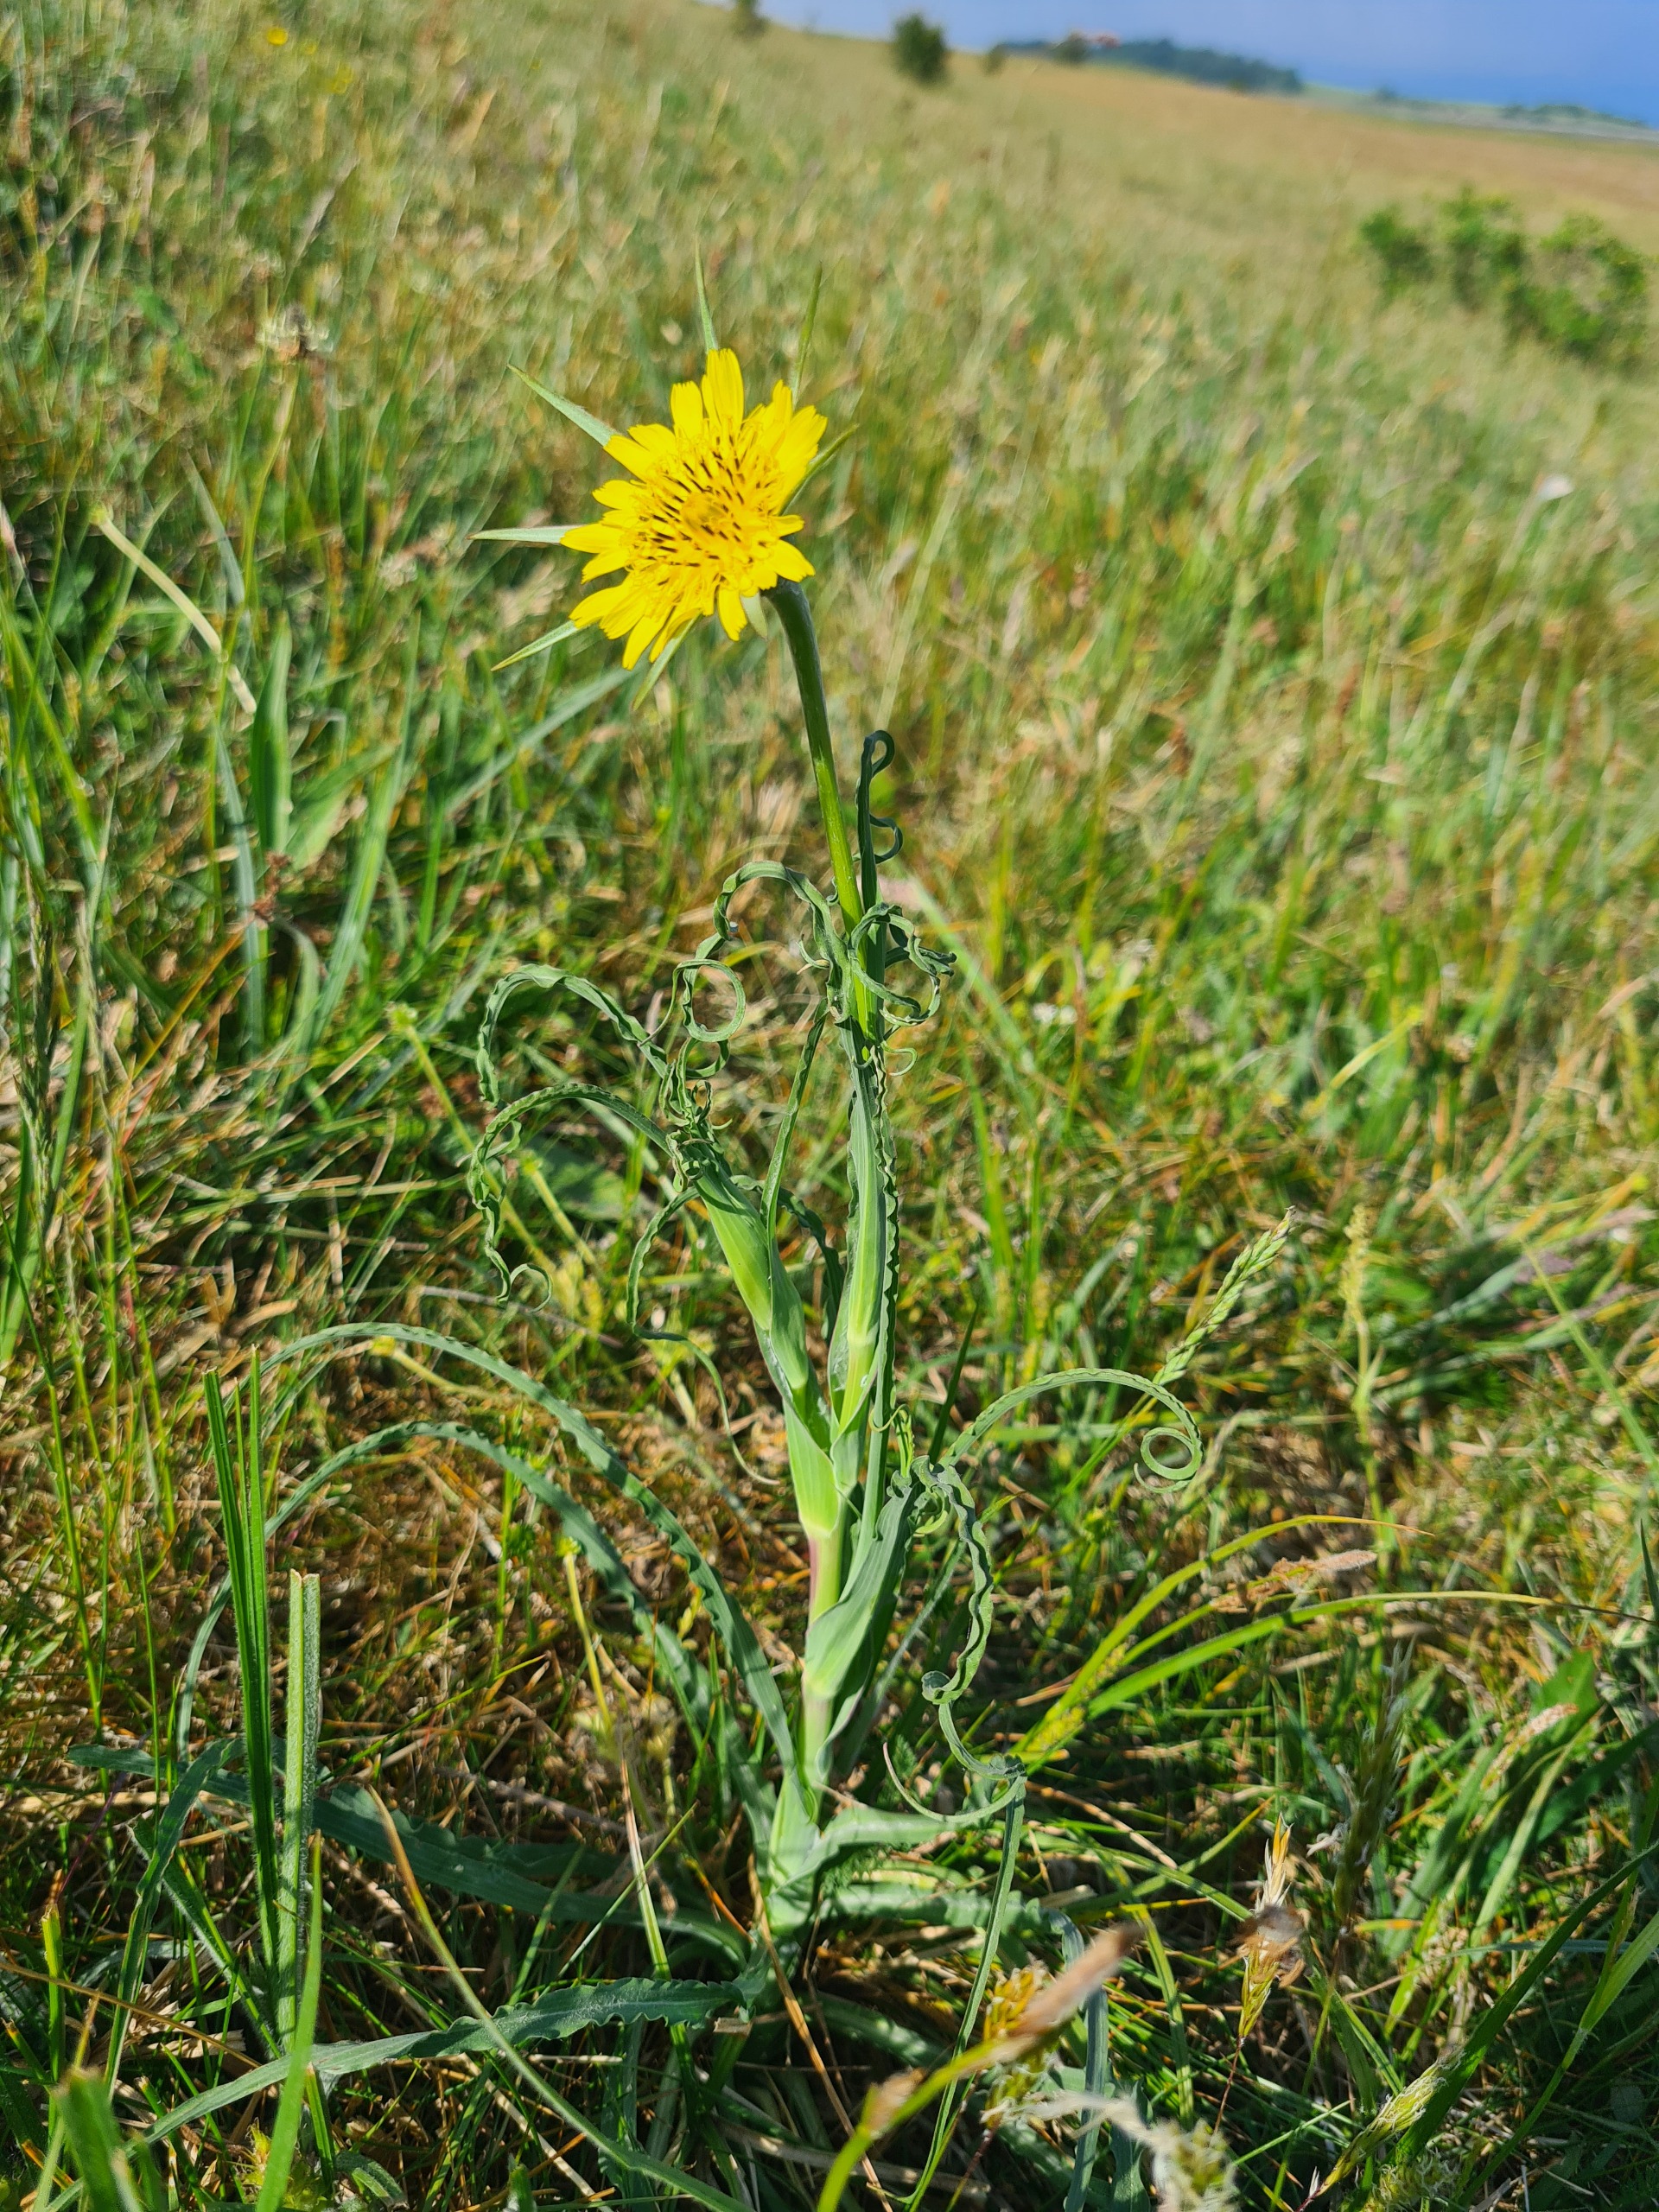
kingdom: Plantae
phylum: Tracheophyta
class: Magnoliopsida
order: Asterales
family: Asteraceae
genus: Tragopogon
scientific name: Tragopogon minor
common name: Småkronet gedeskæg
